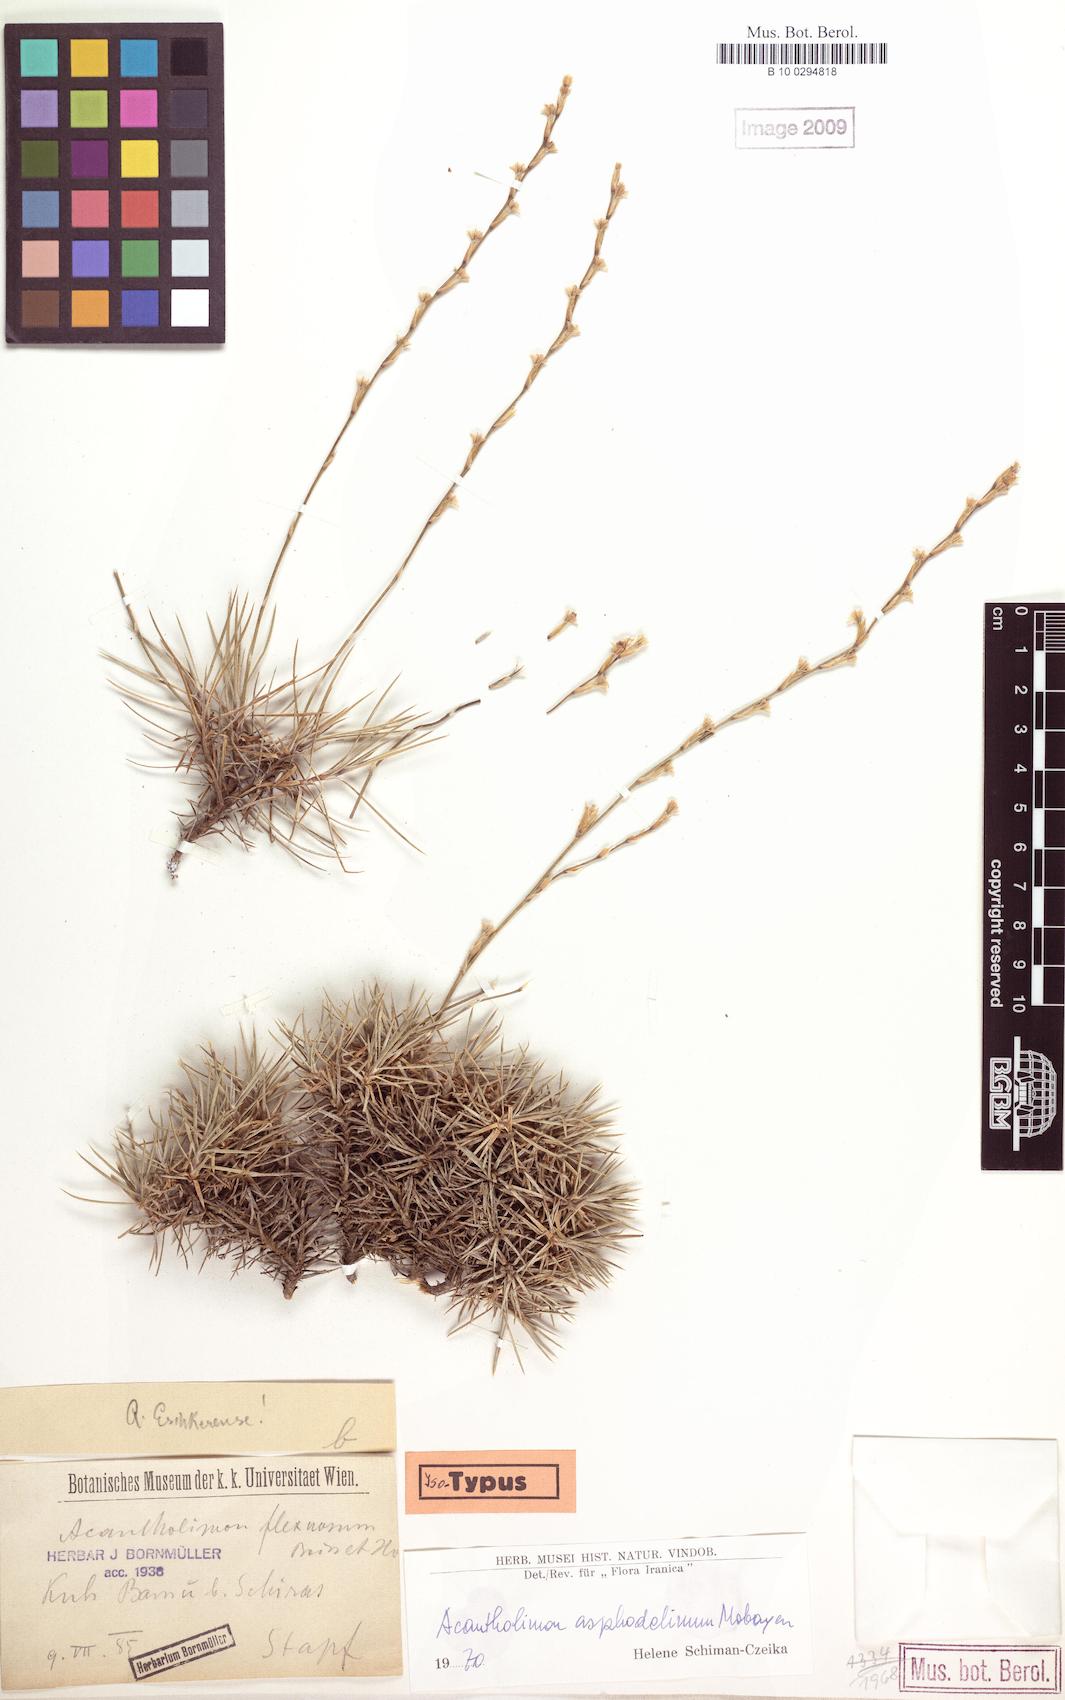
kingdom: Plantae
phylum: Tracheophyta
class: Magnoliopsida
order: Caryophyllales
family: Plumbaginaceae
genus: Acantholimon
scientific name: Acantholimon asphodelinum
